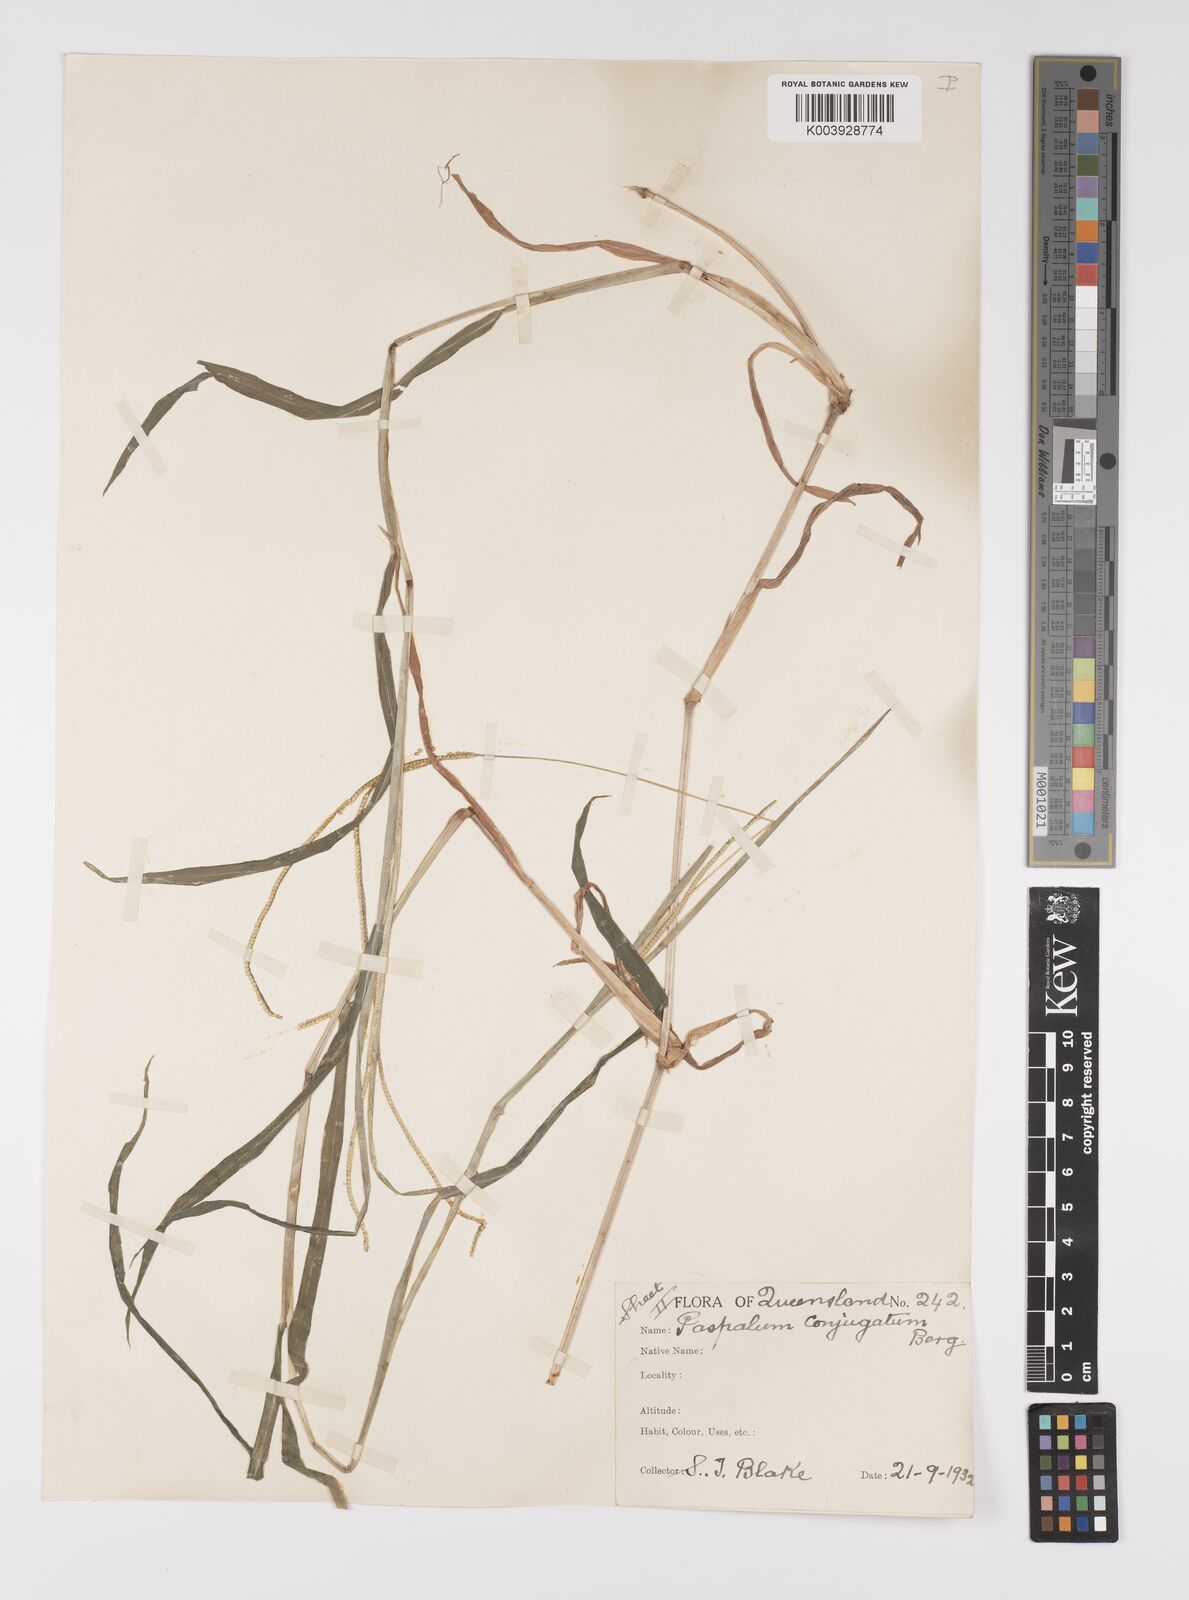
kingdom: Plantae
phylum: Tracheophyta
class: Liliopsida
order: Poales
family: Poaceae
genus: Paspalum
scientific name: Paspalum conjugatum
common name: Hilograss
